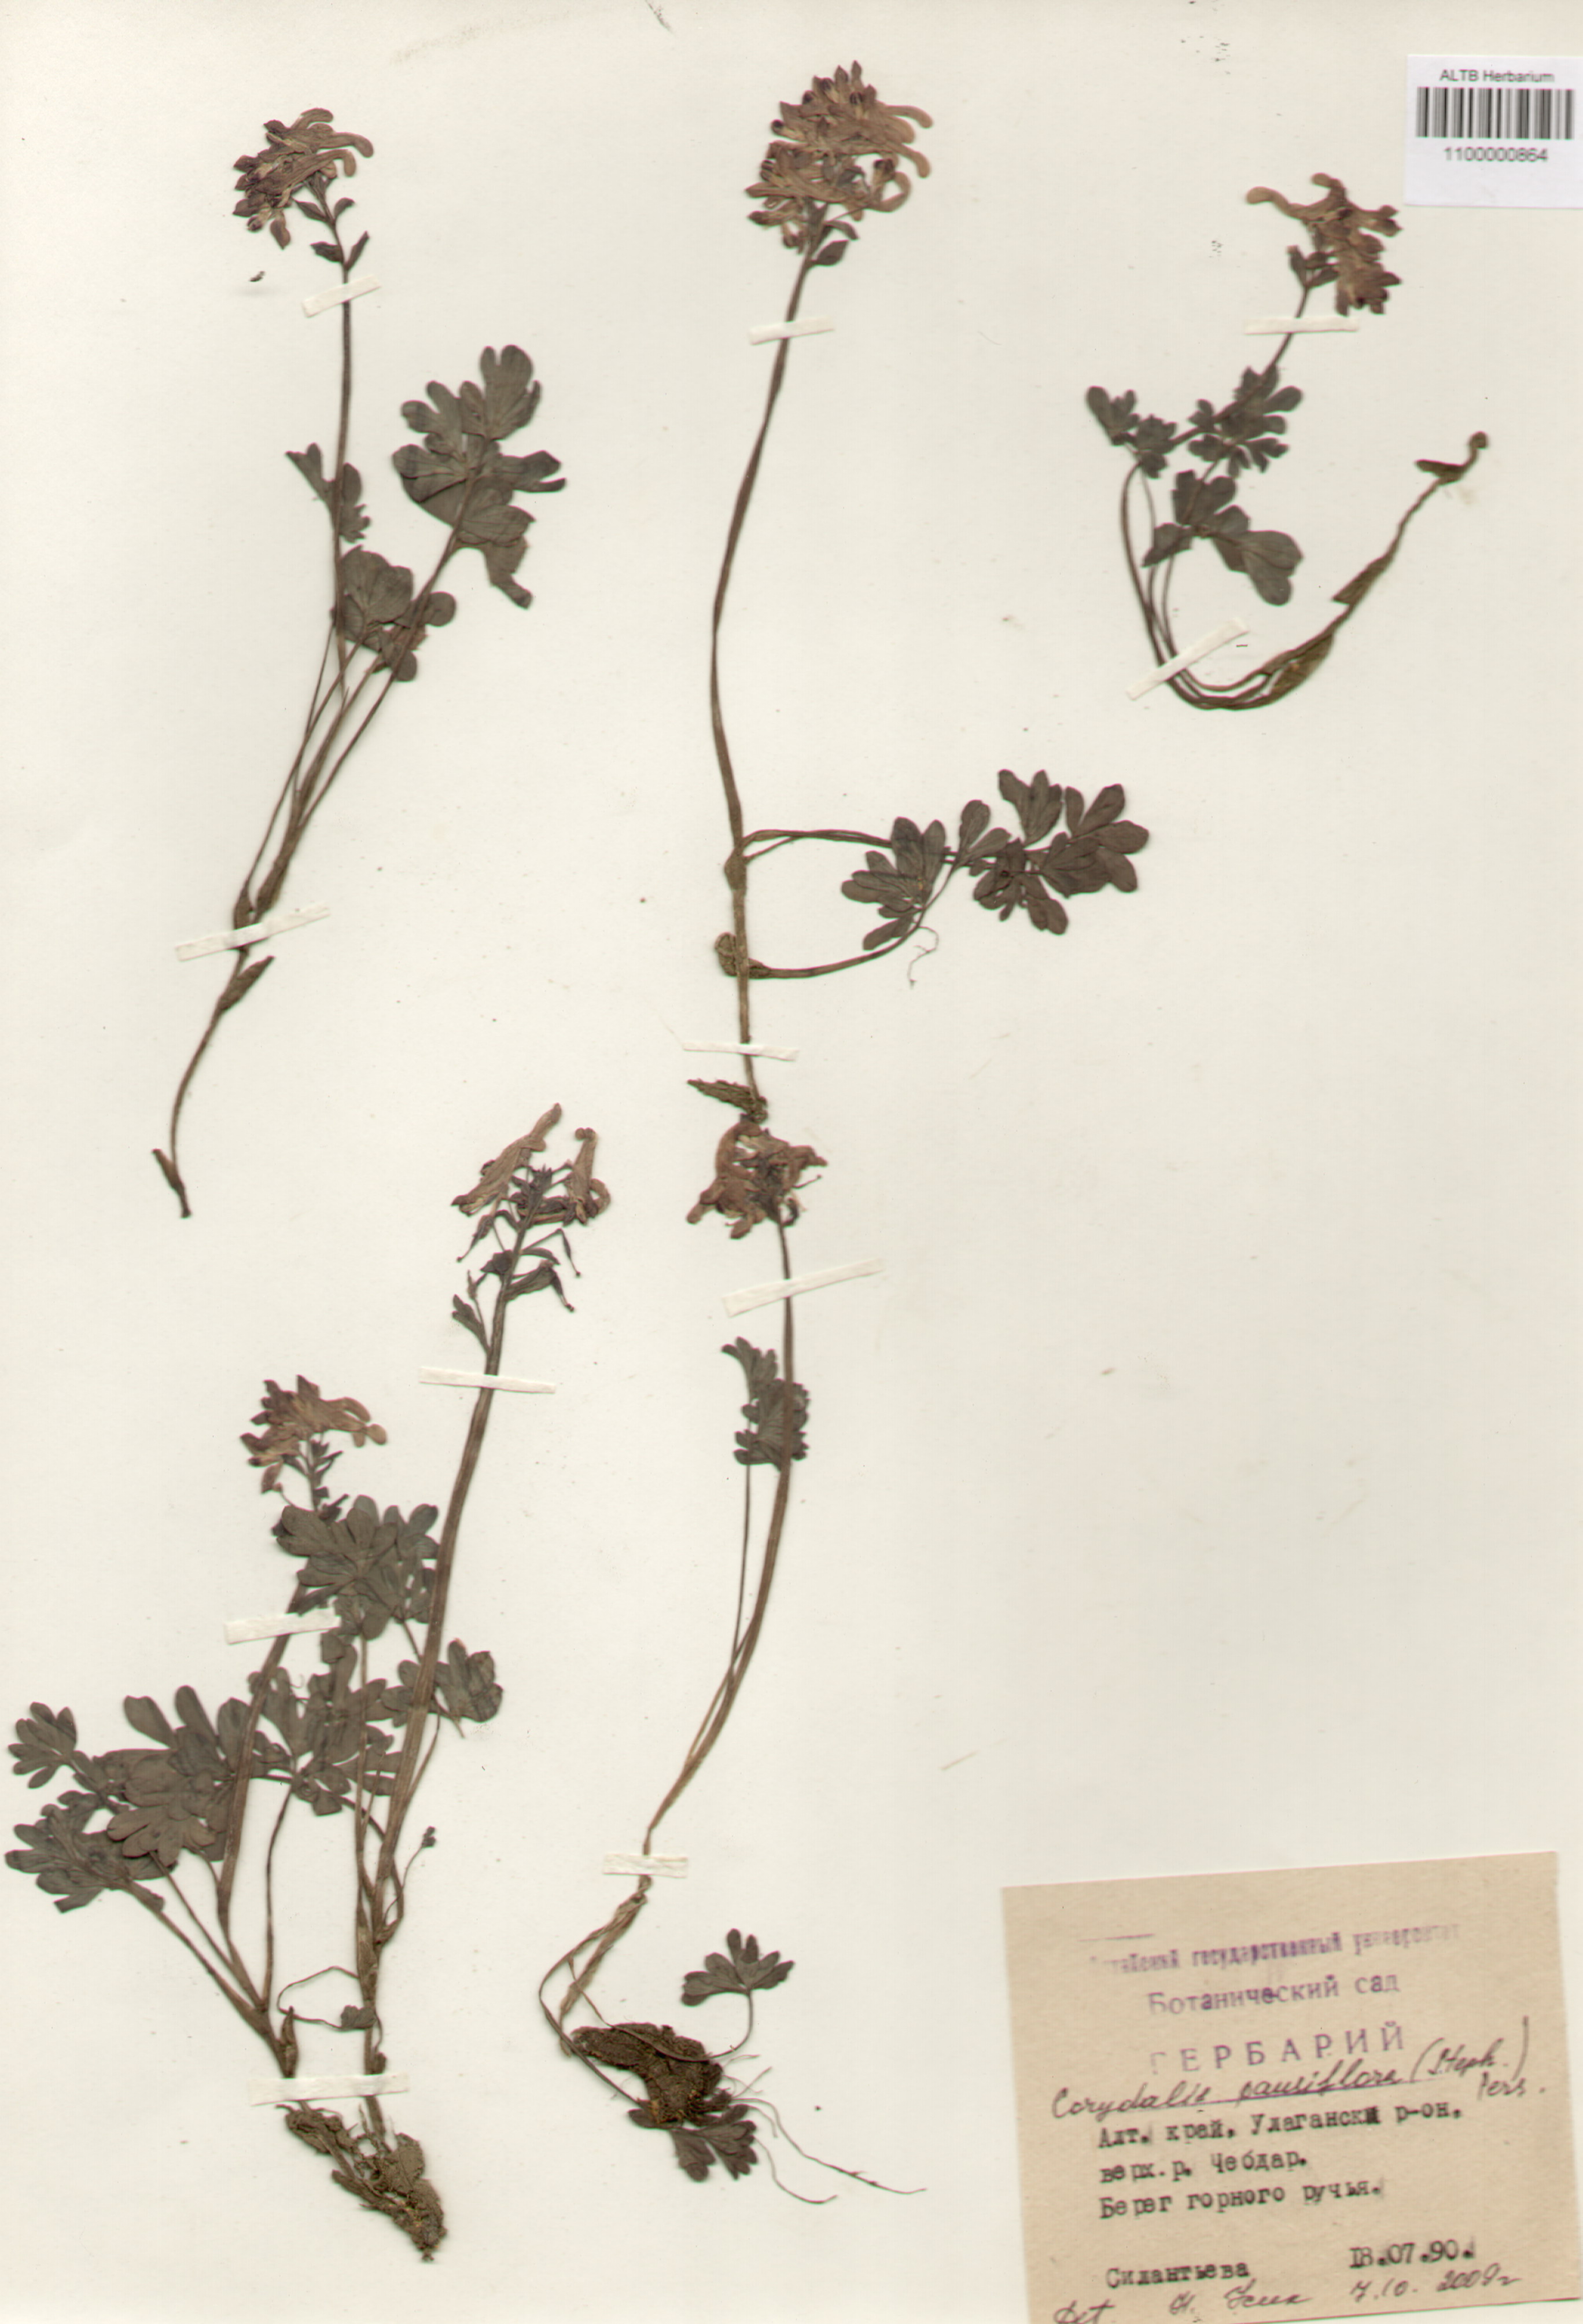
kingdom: Plantae
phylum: Tracheophyta
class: Magnoliopsida
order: Ranunculales
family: Papaveraceae
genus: Corydalis
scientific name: Corydalis pauciflora
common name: Blue corydalis
